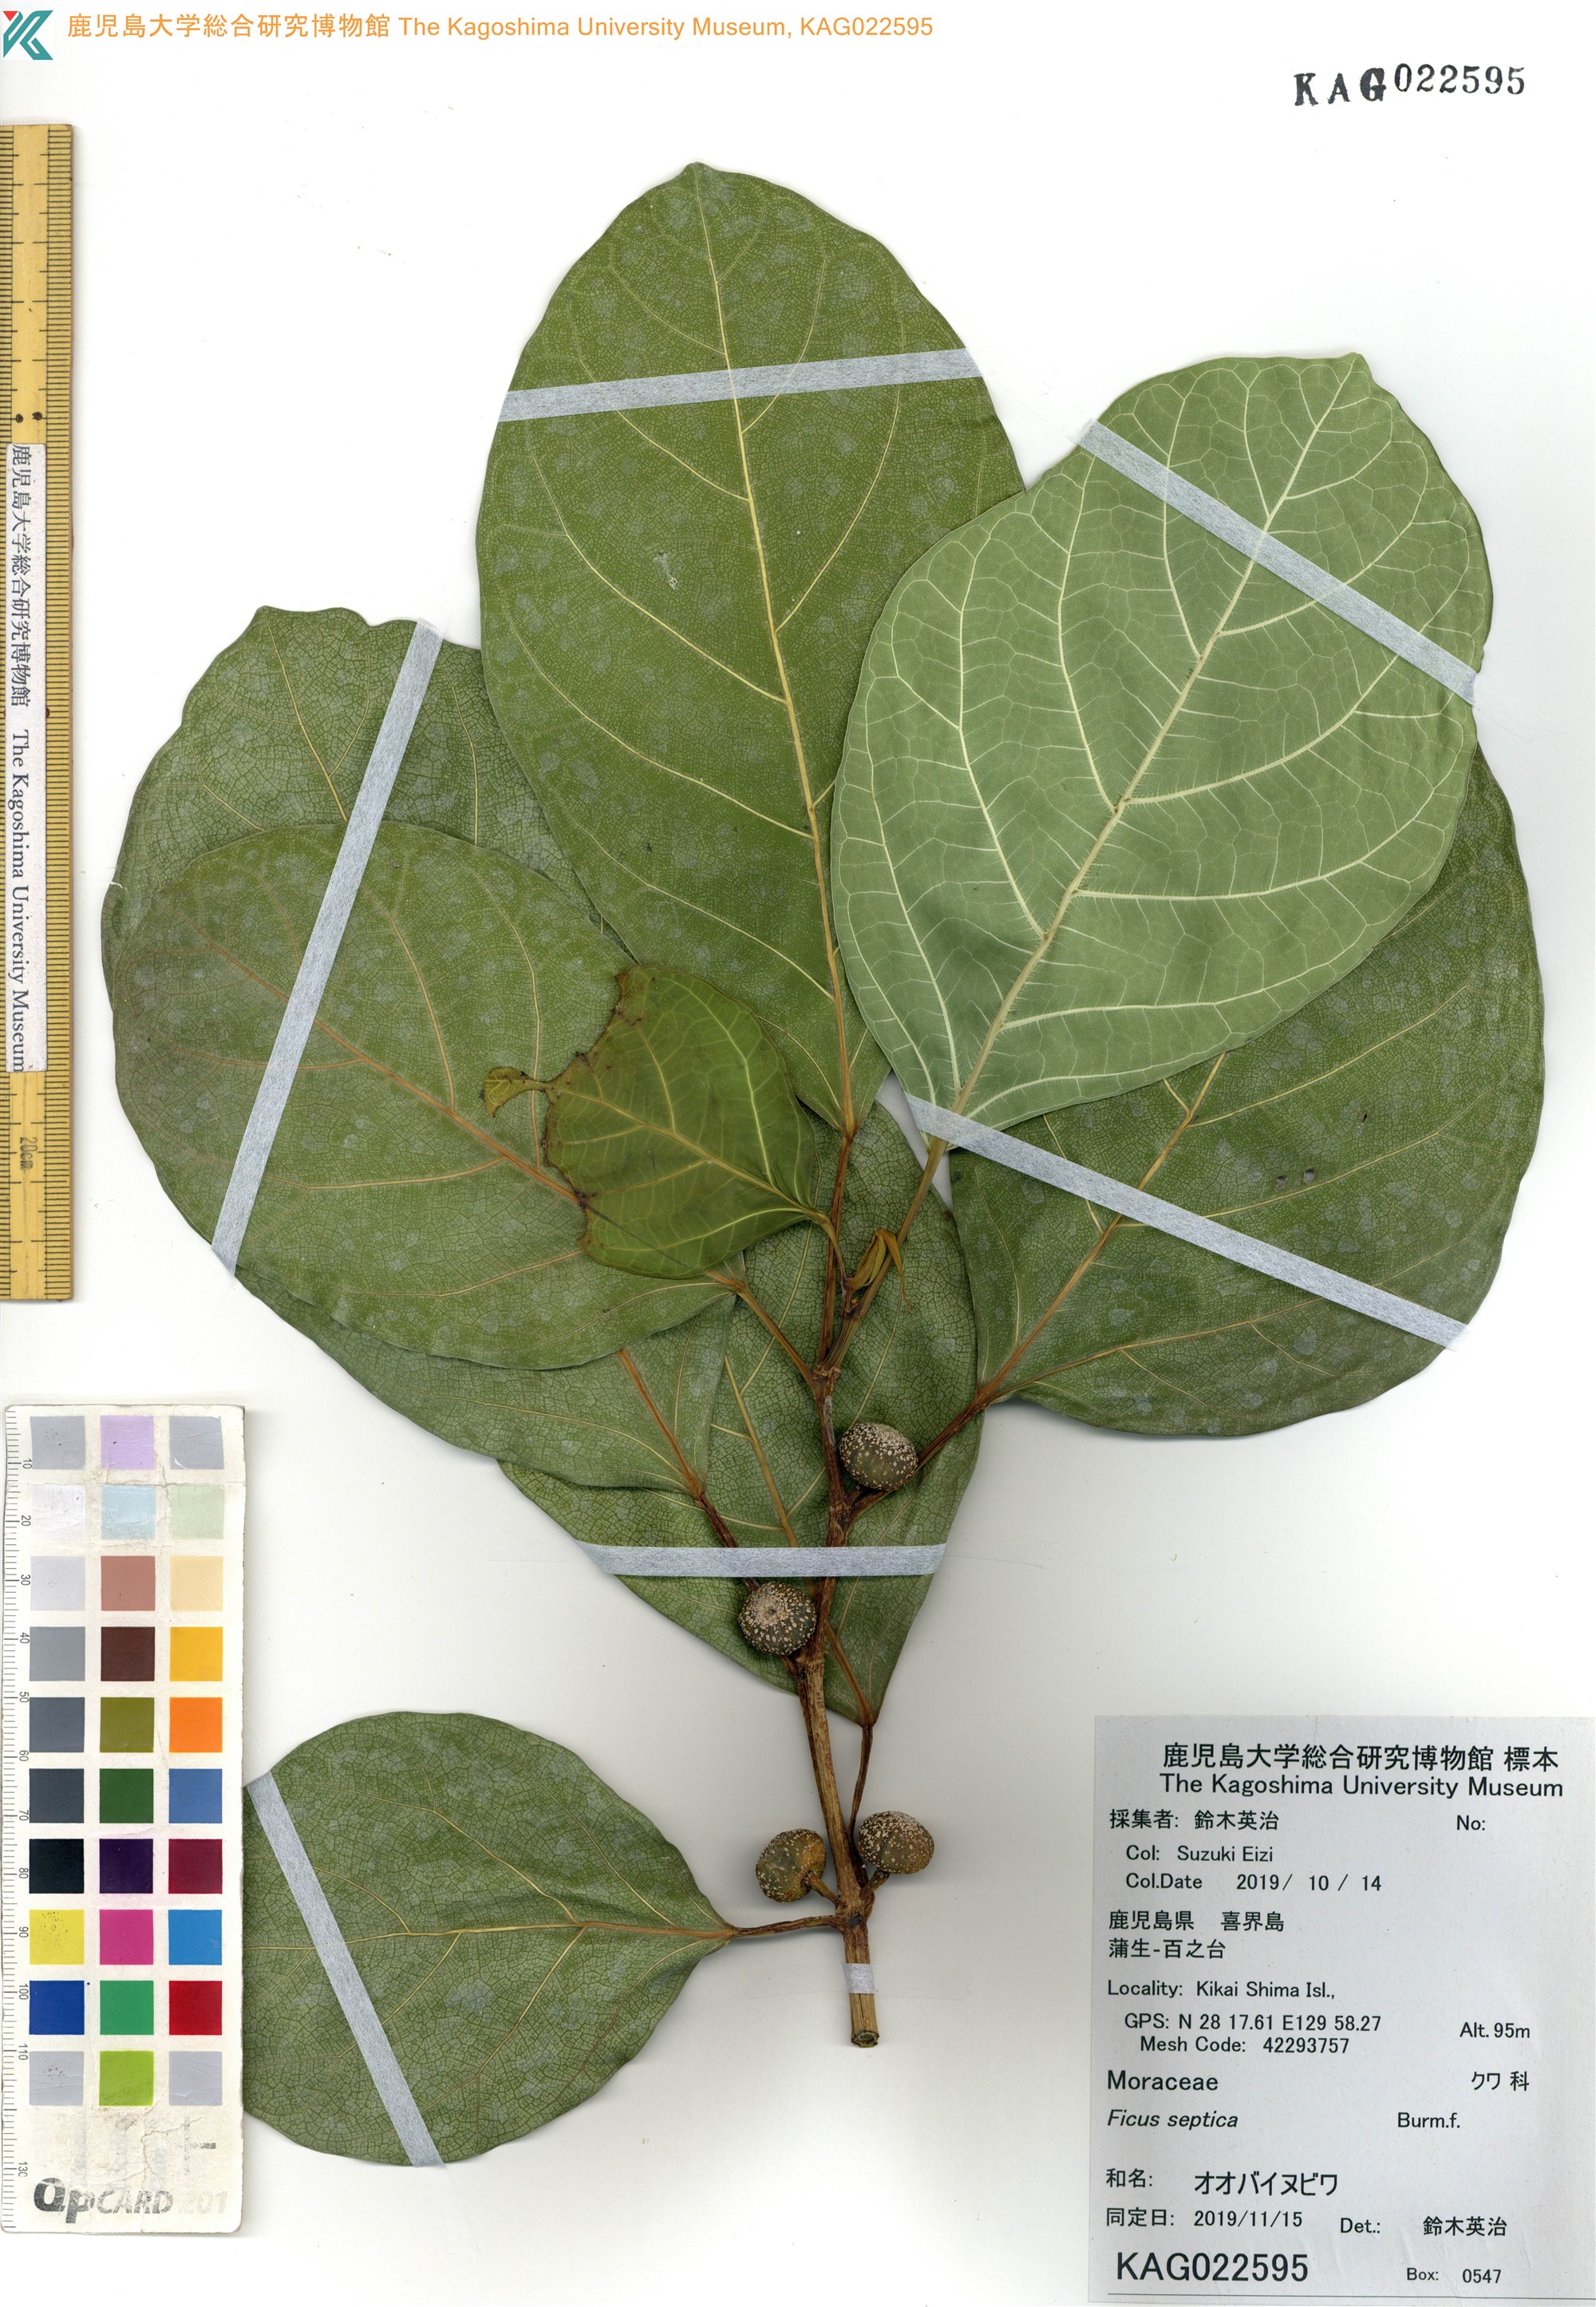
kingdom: Plantae
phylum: Tracheophyta
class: Magnoliopsida
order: Rosales
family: Moraceae
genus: Ficus
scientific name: Ficus septica
